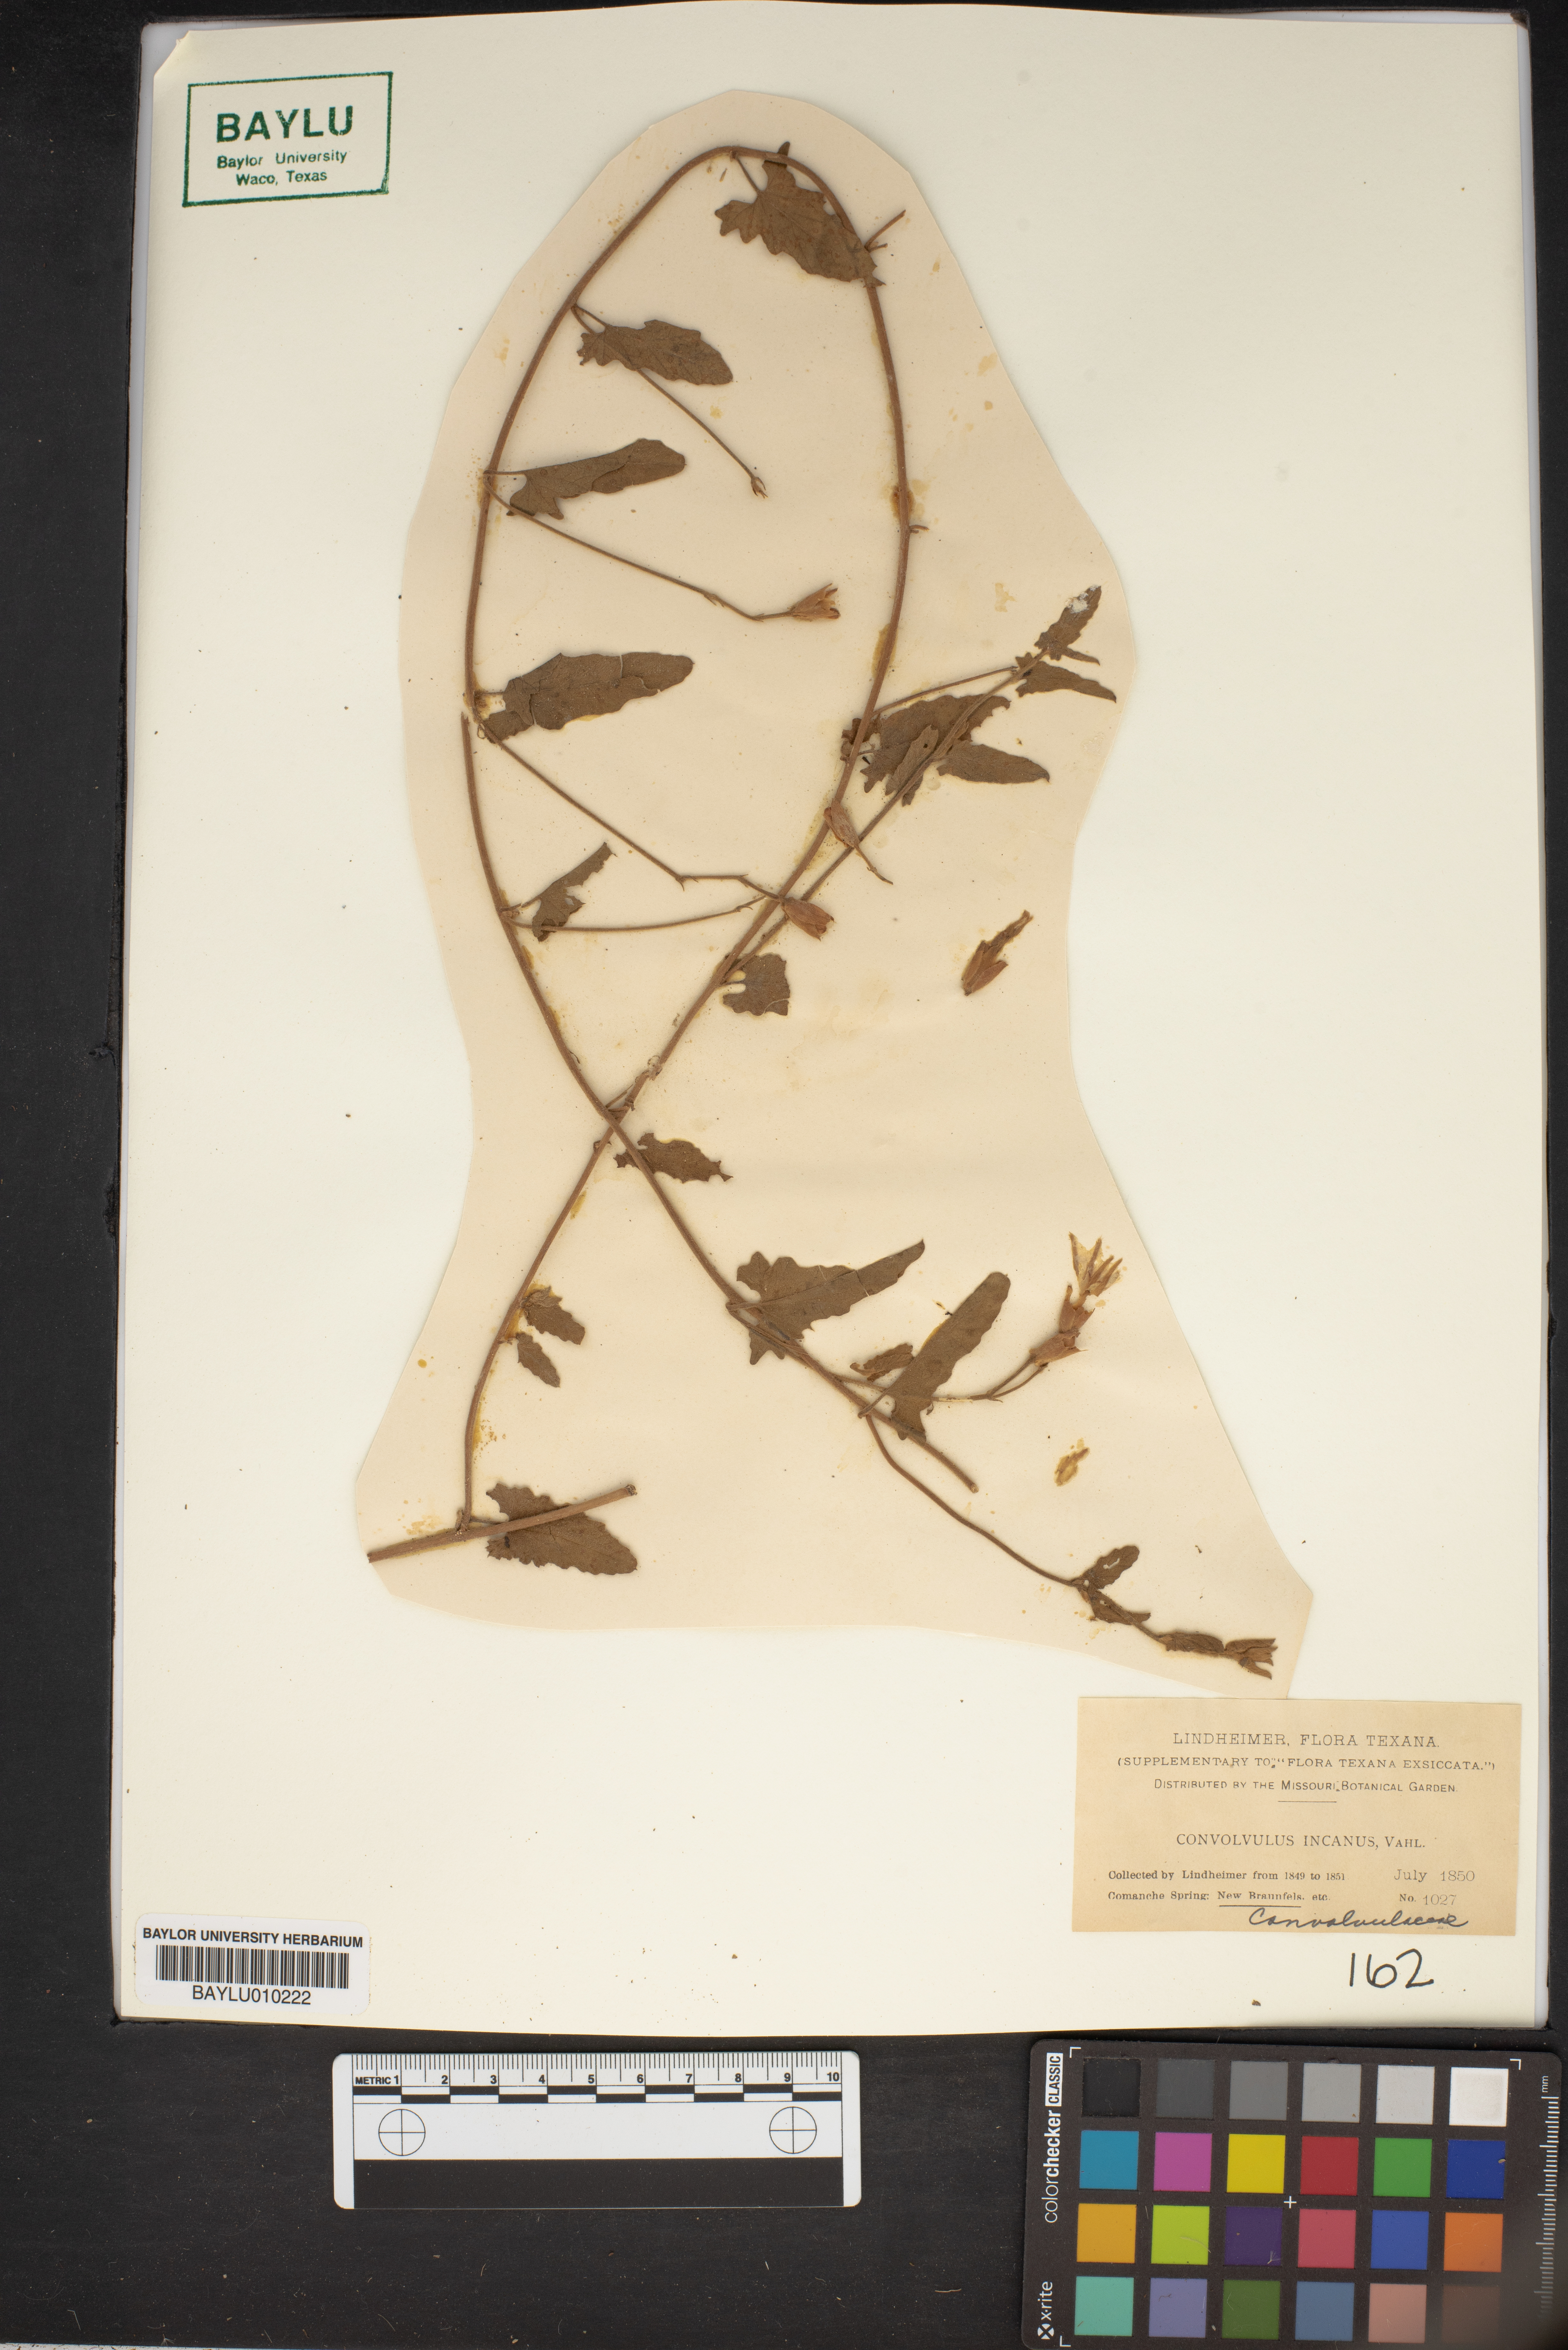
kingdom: Plantae
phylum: Tracheophyta
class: Magnoliopsida
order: Solanales
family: Convolvulaceae
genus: Convolvulus
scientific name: Convolvulus hermanniae
